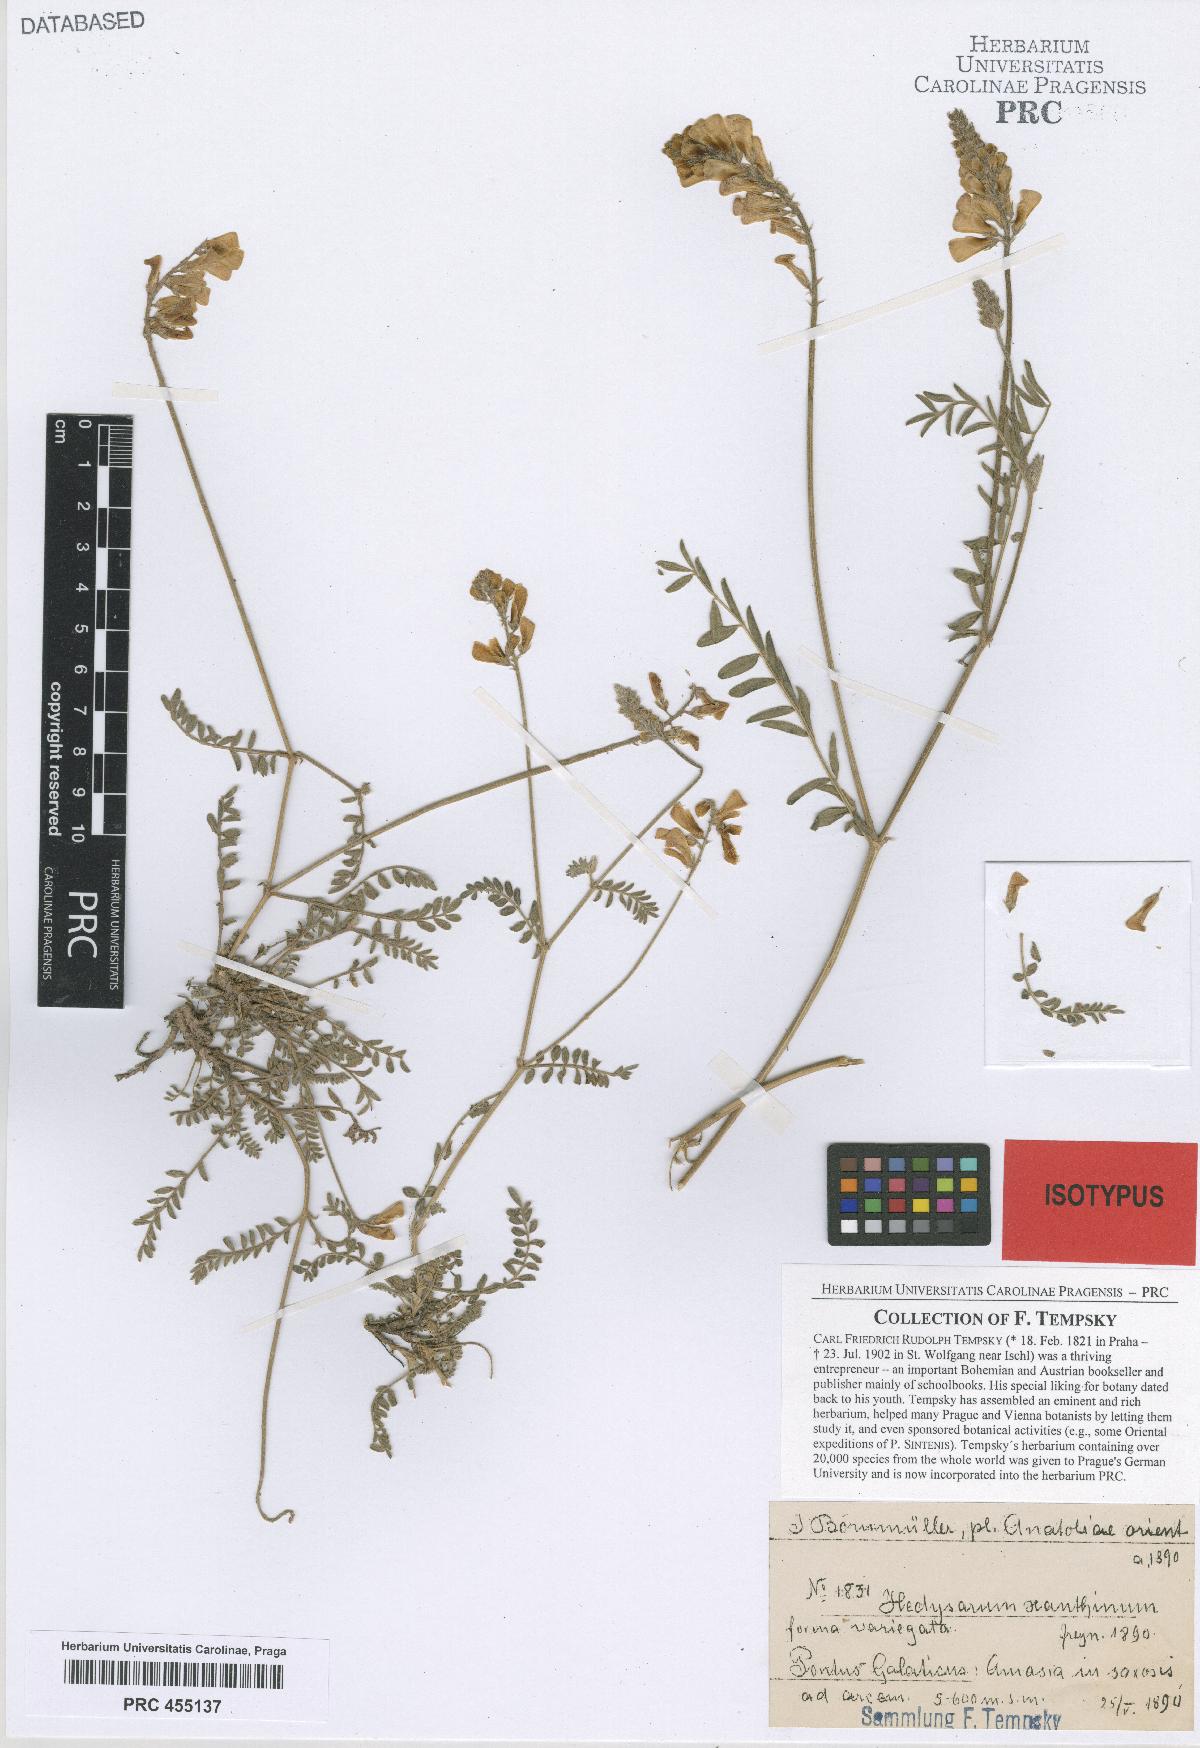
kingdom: Plantae
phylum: Tracheophyta
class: Magnoliopsida
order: Fabales
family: Fabaceae
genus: Hedysarum
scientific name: Hedysarum pogonocarpum
